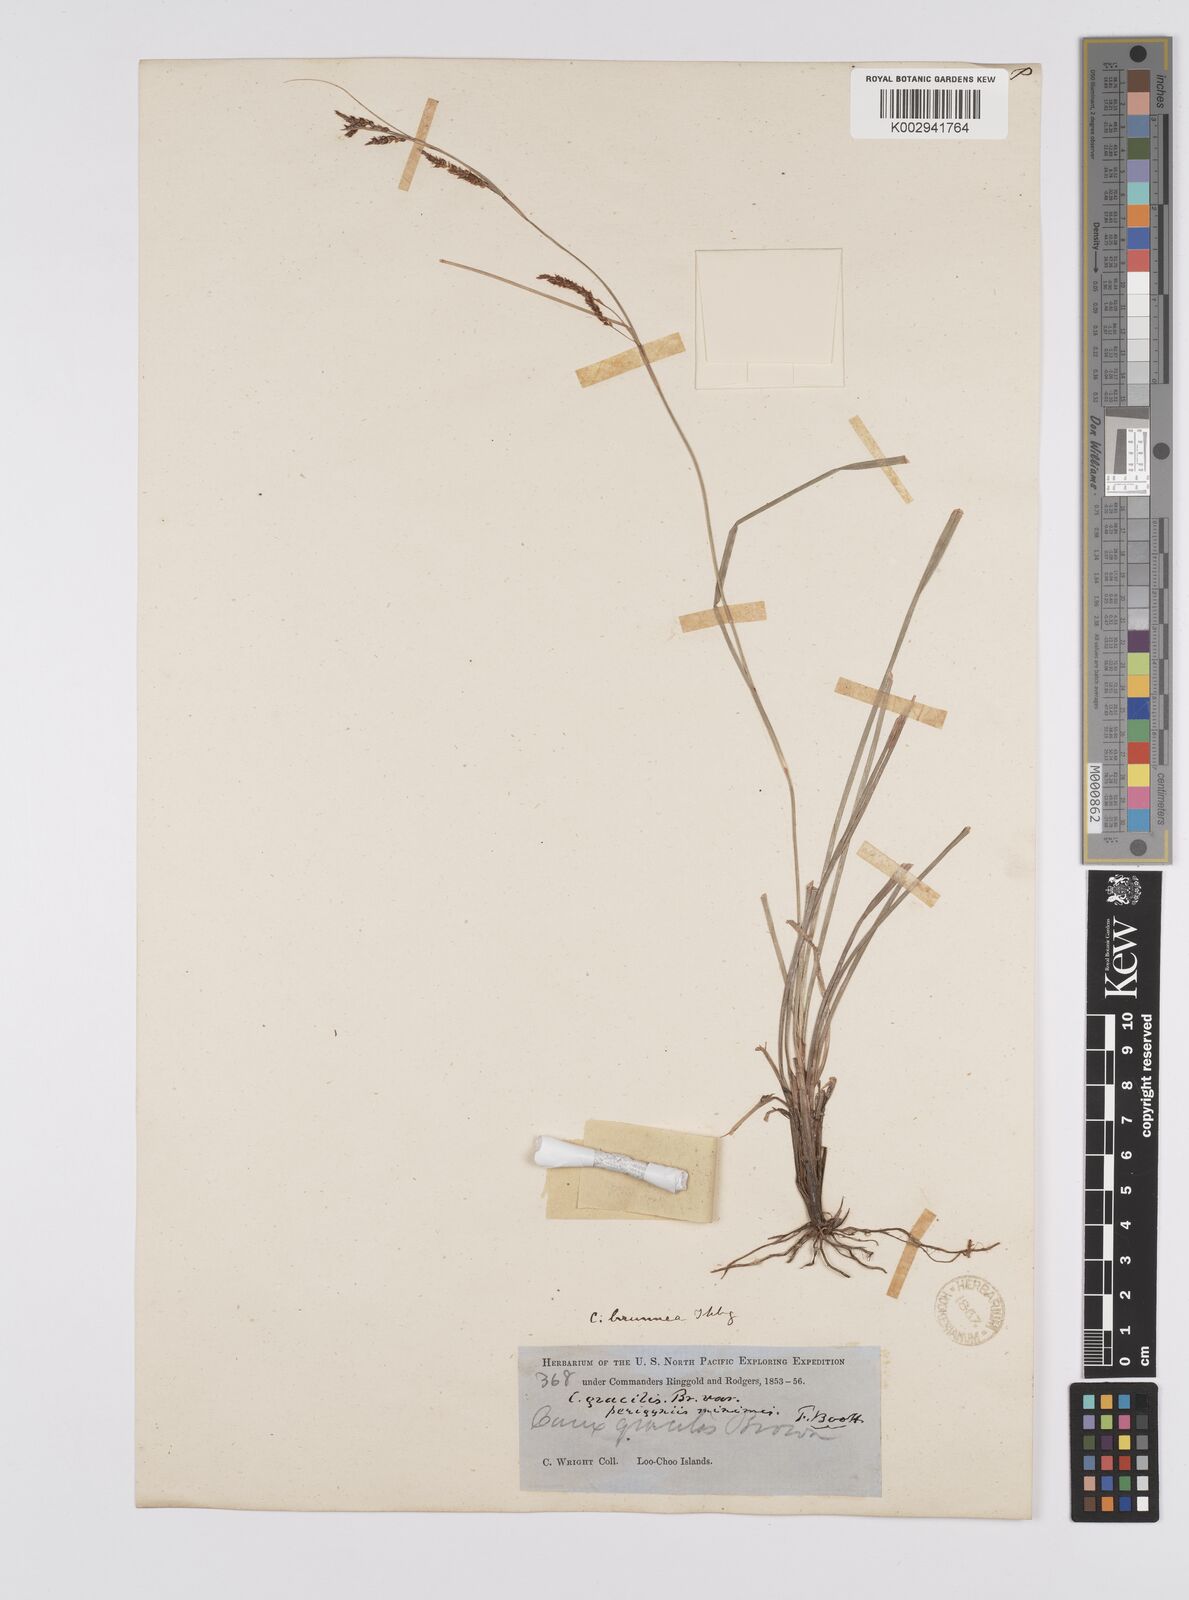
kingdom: Plantae
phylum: Tracheophyta
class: Liliopsida
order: Poales
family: Cyperaceae
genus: Carex
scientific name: Carex brunnea
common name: Greater brown sedge
